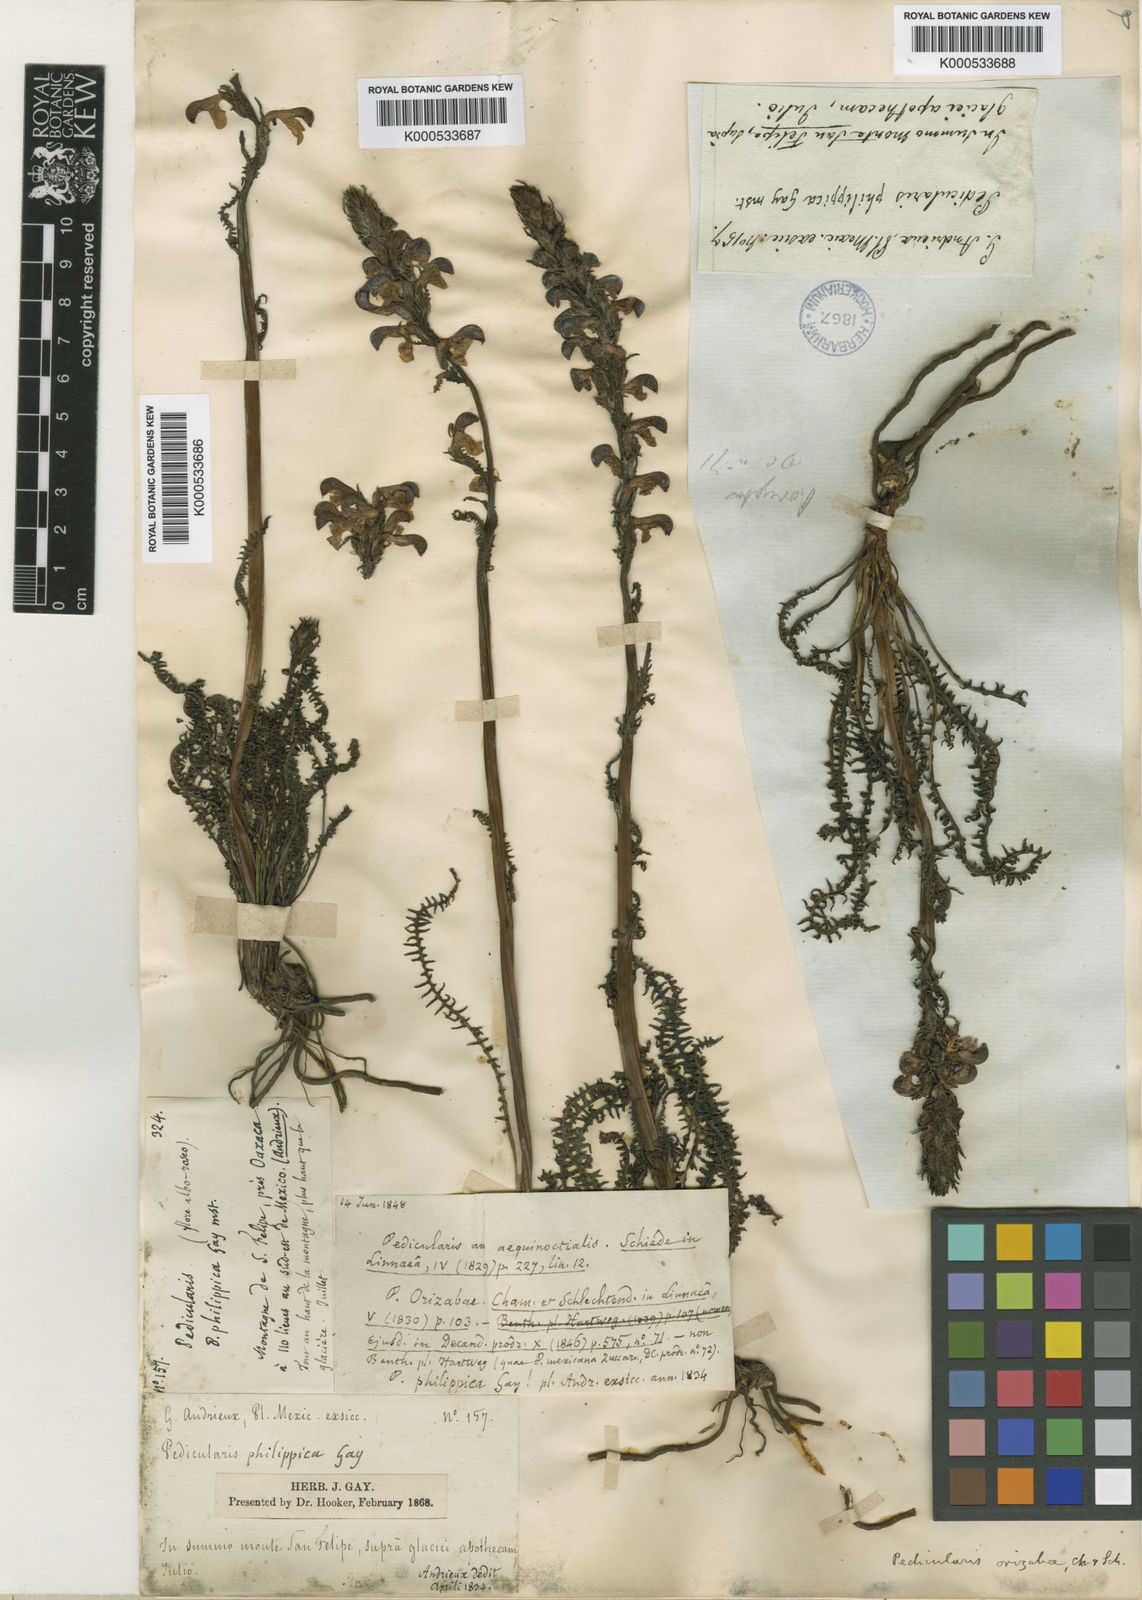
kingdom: Plantae
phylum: Tracheophyta
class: Magnoliopsida
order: Lamiales
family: Orobanchaceae
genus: Pedicularis
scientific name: Pedicularis orizabae
